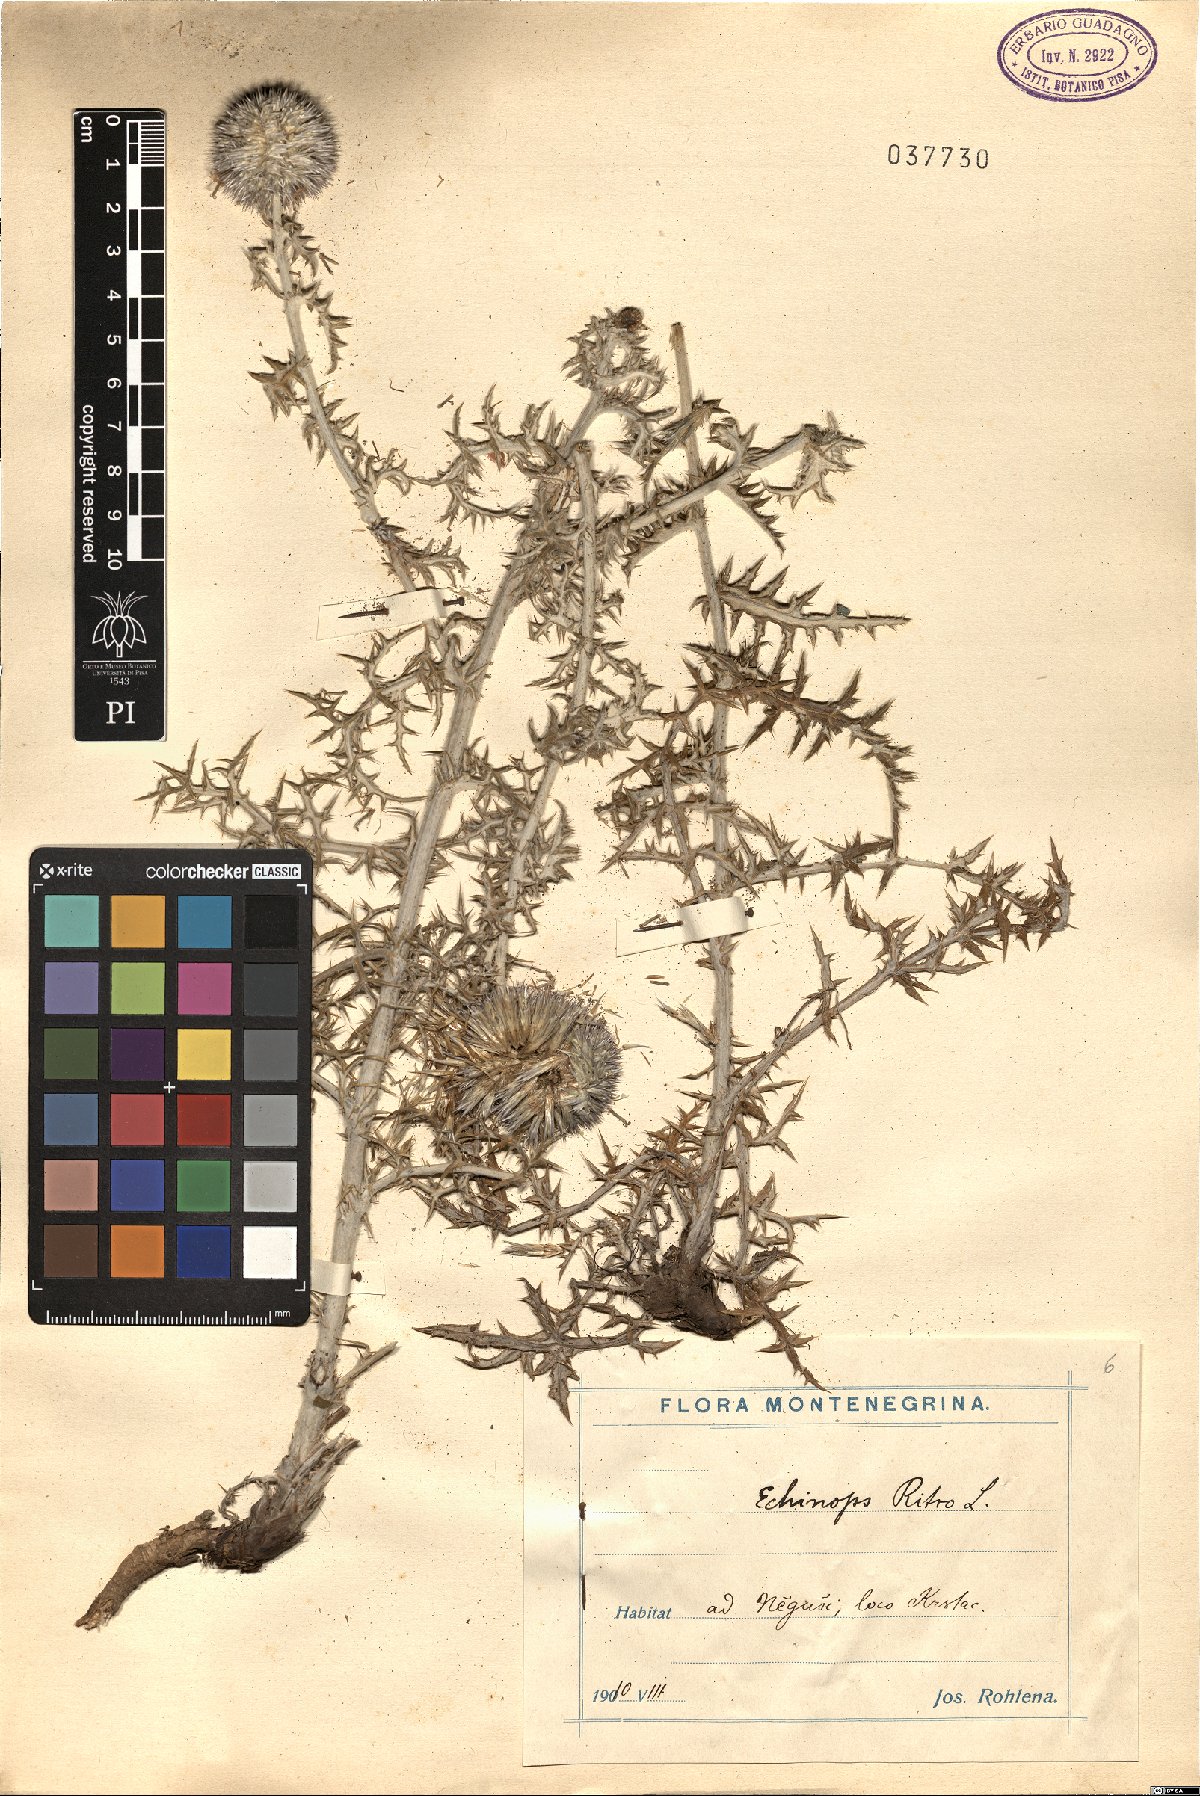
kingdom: Plantae
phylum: Tracheophyta
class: Magnoliopsida
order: Asterales
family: Asteraceae
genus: Echinops
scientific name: Echinops ritro
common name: Globe thistle
